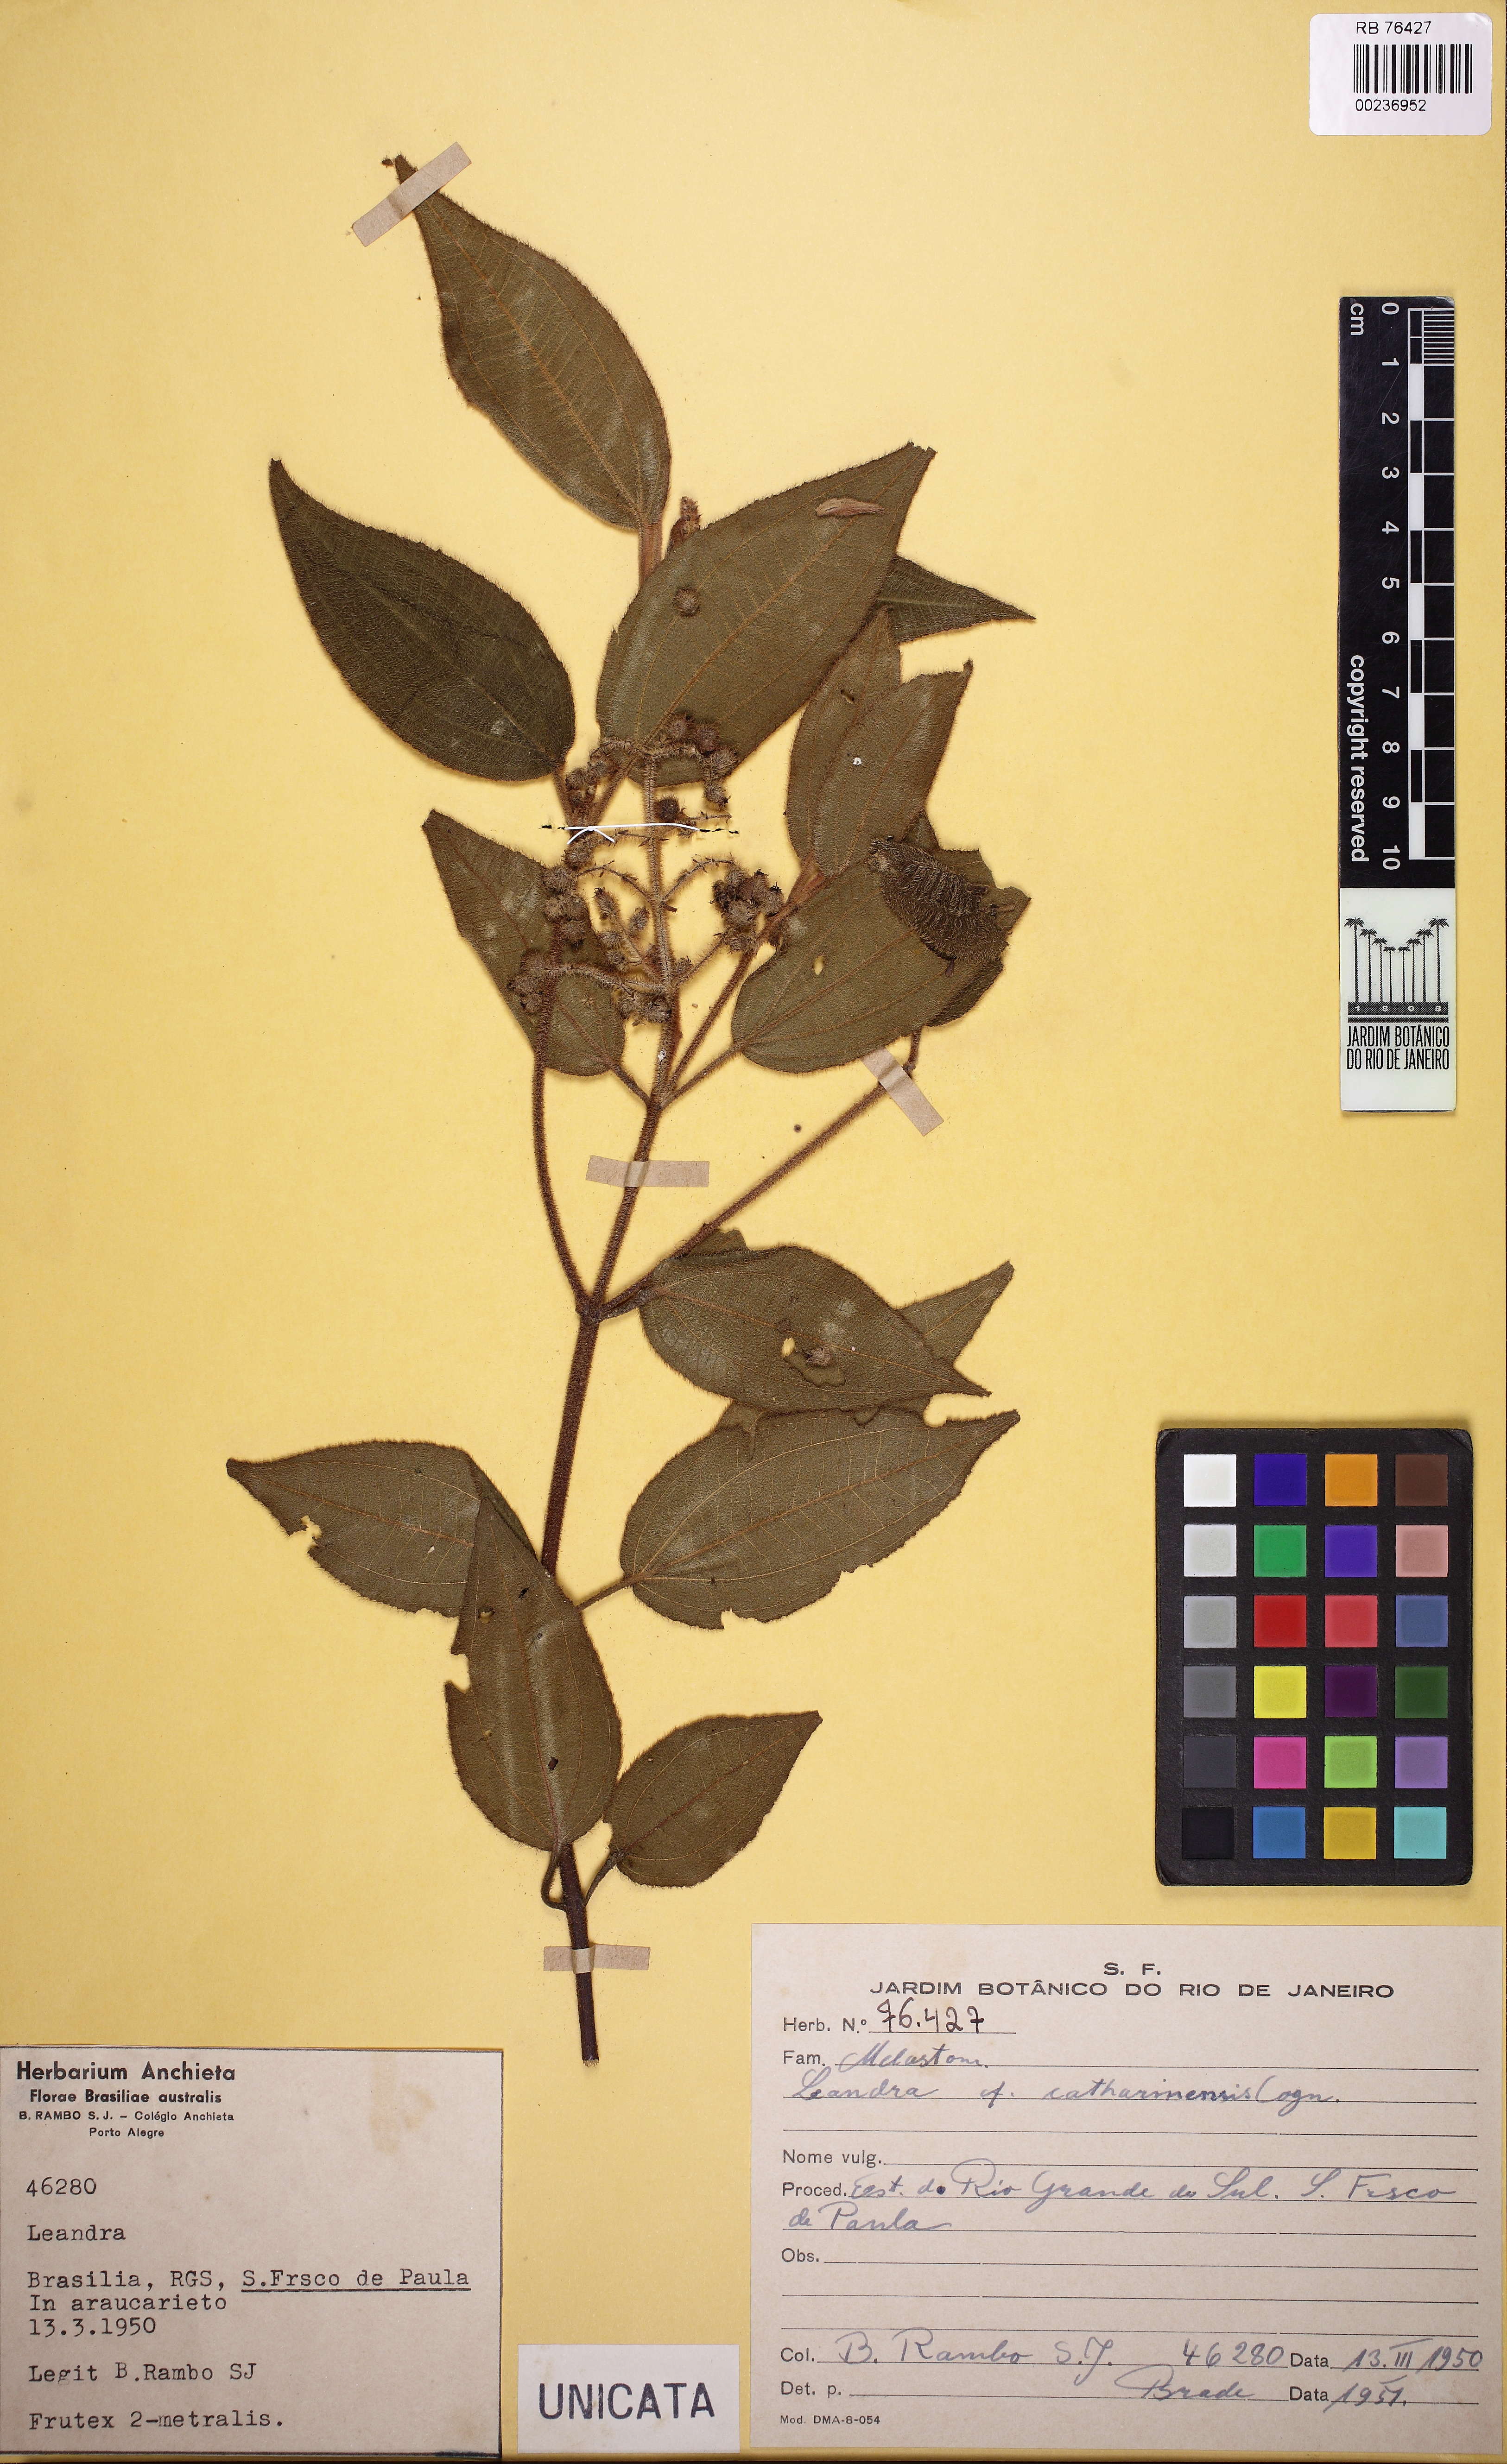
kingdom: Plantae
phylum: Tracheophyta
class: Magnoliopsida
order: Myrtales
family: Melastomataceae
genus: Miconia
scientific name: Miconia catharinensis
